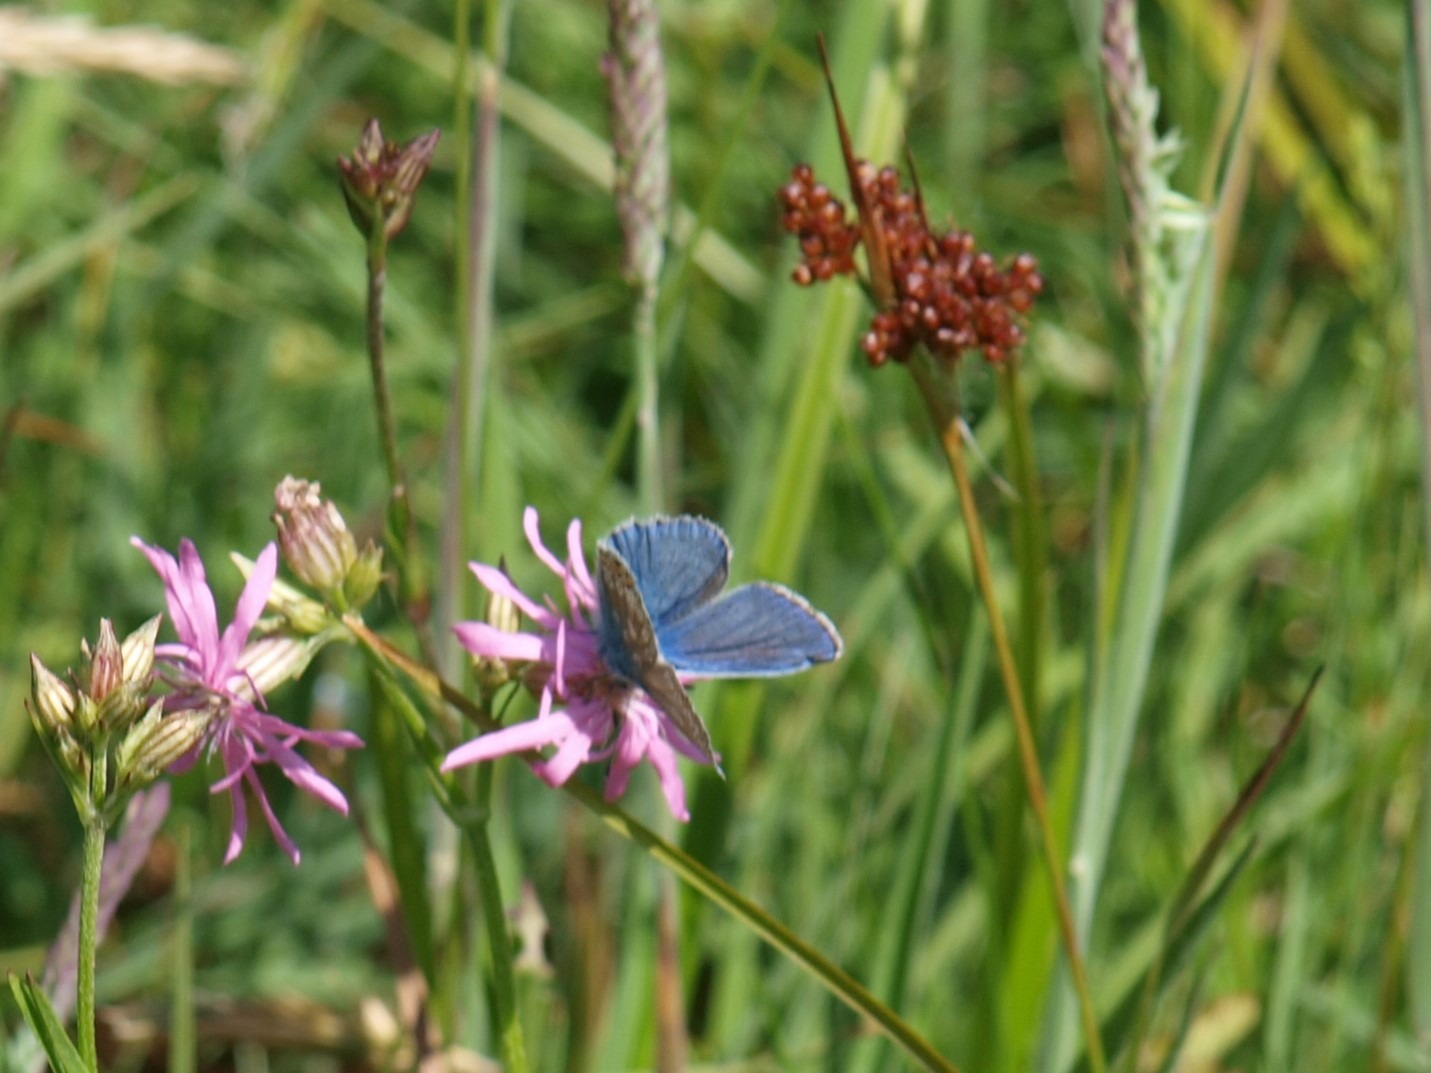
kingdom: Animalia
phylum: Arthropoda
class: Insecta
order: Lepidoptera
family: Lycaenidae
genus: Polyommatus
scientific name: Polyommatus icarus
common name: Almindelig blåfugl
